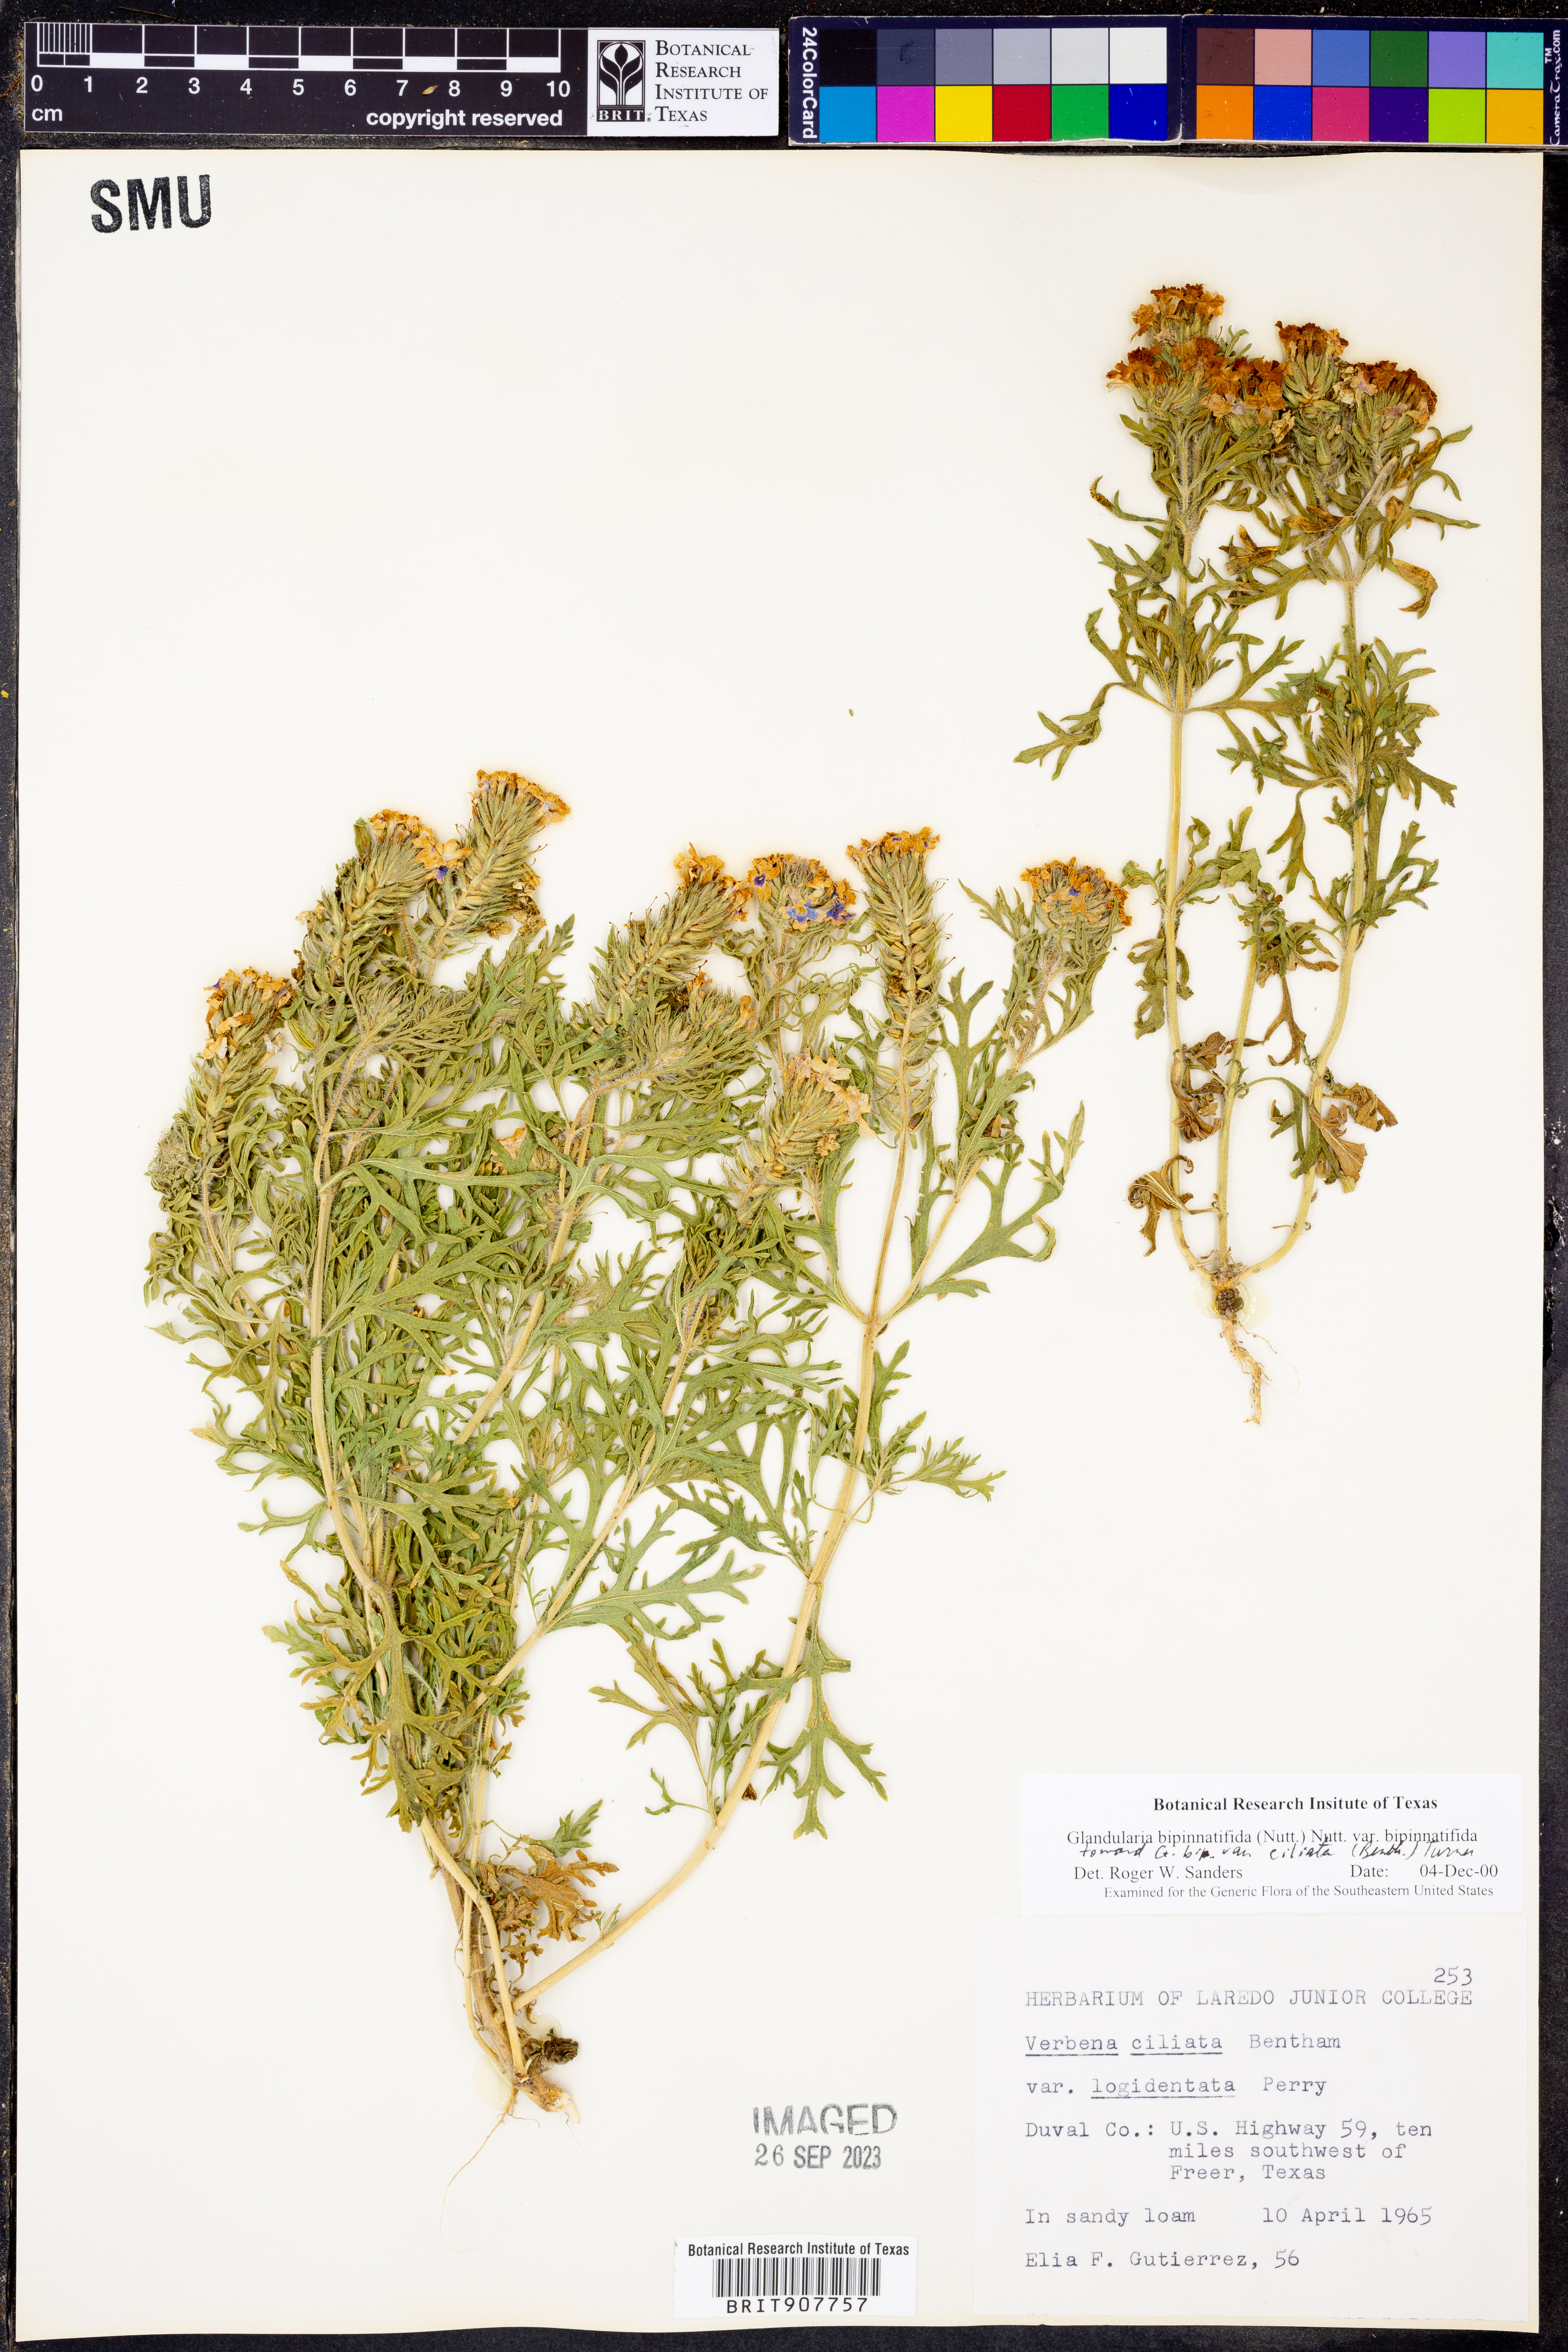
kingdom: Plantae
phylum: Tracheophyta
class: Magnoliopsida
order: Lamiales
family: Verbenaceae
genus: Verbena
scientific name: Verbena bipinnatifida
